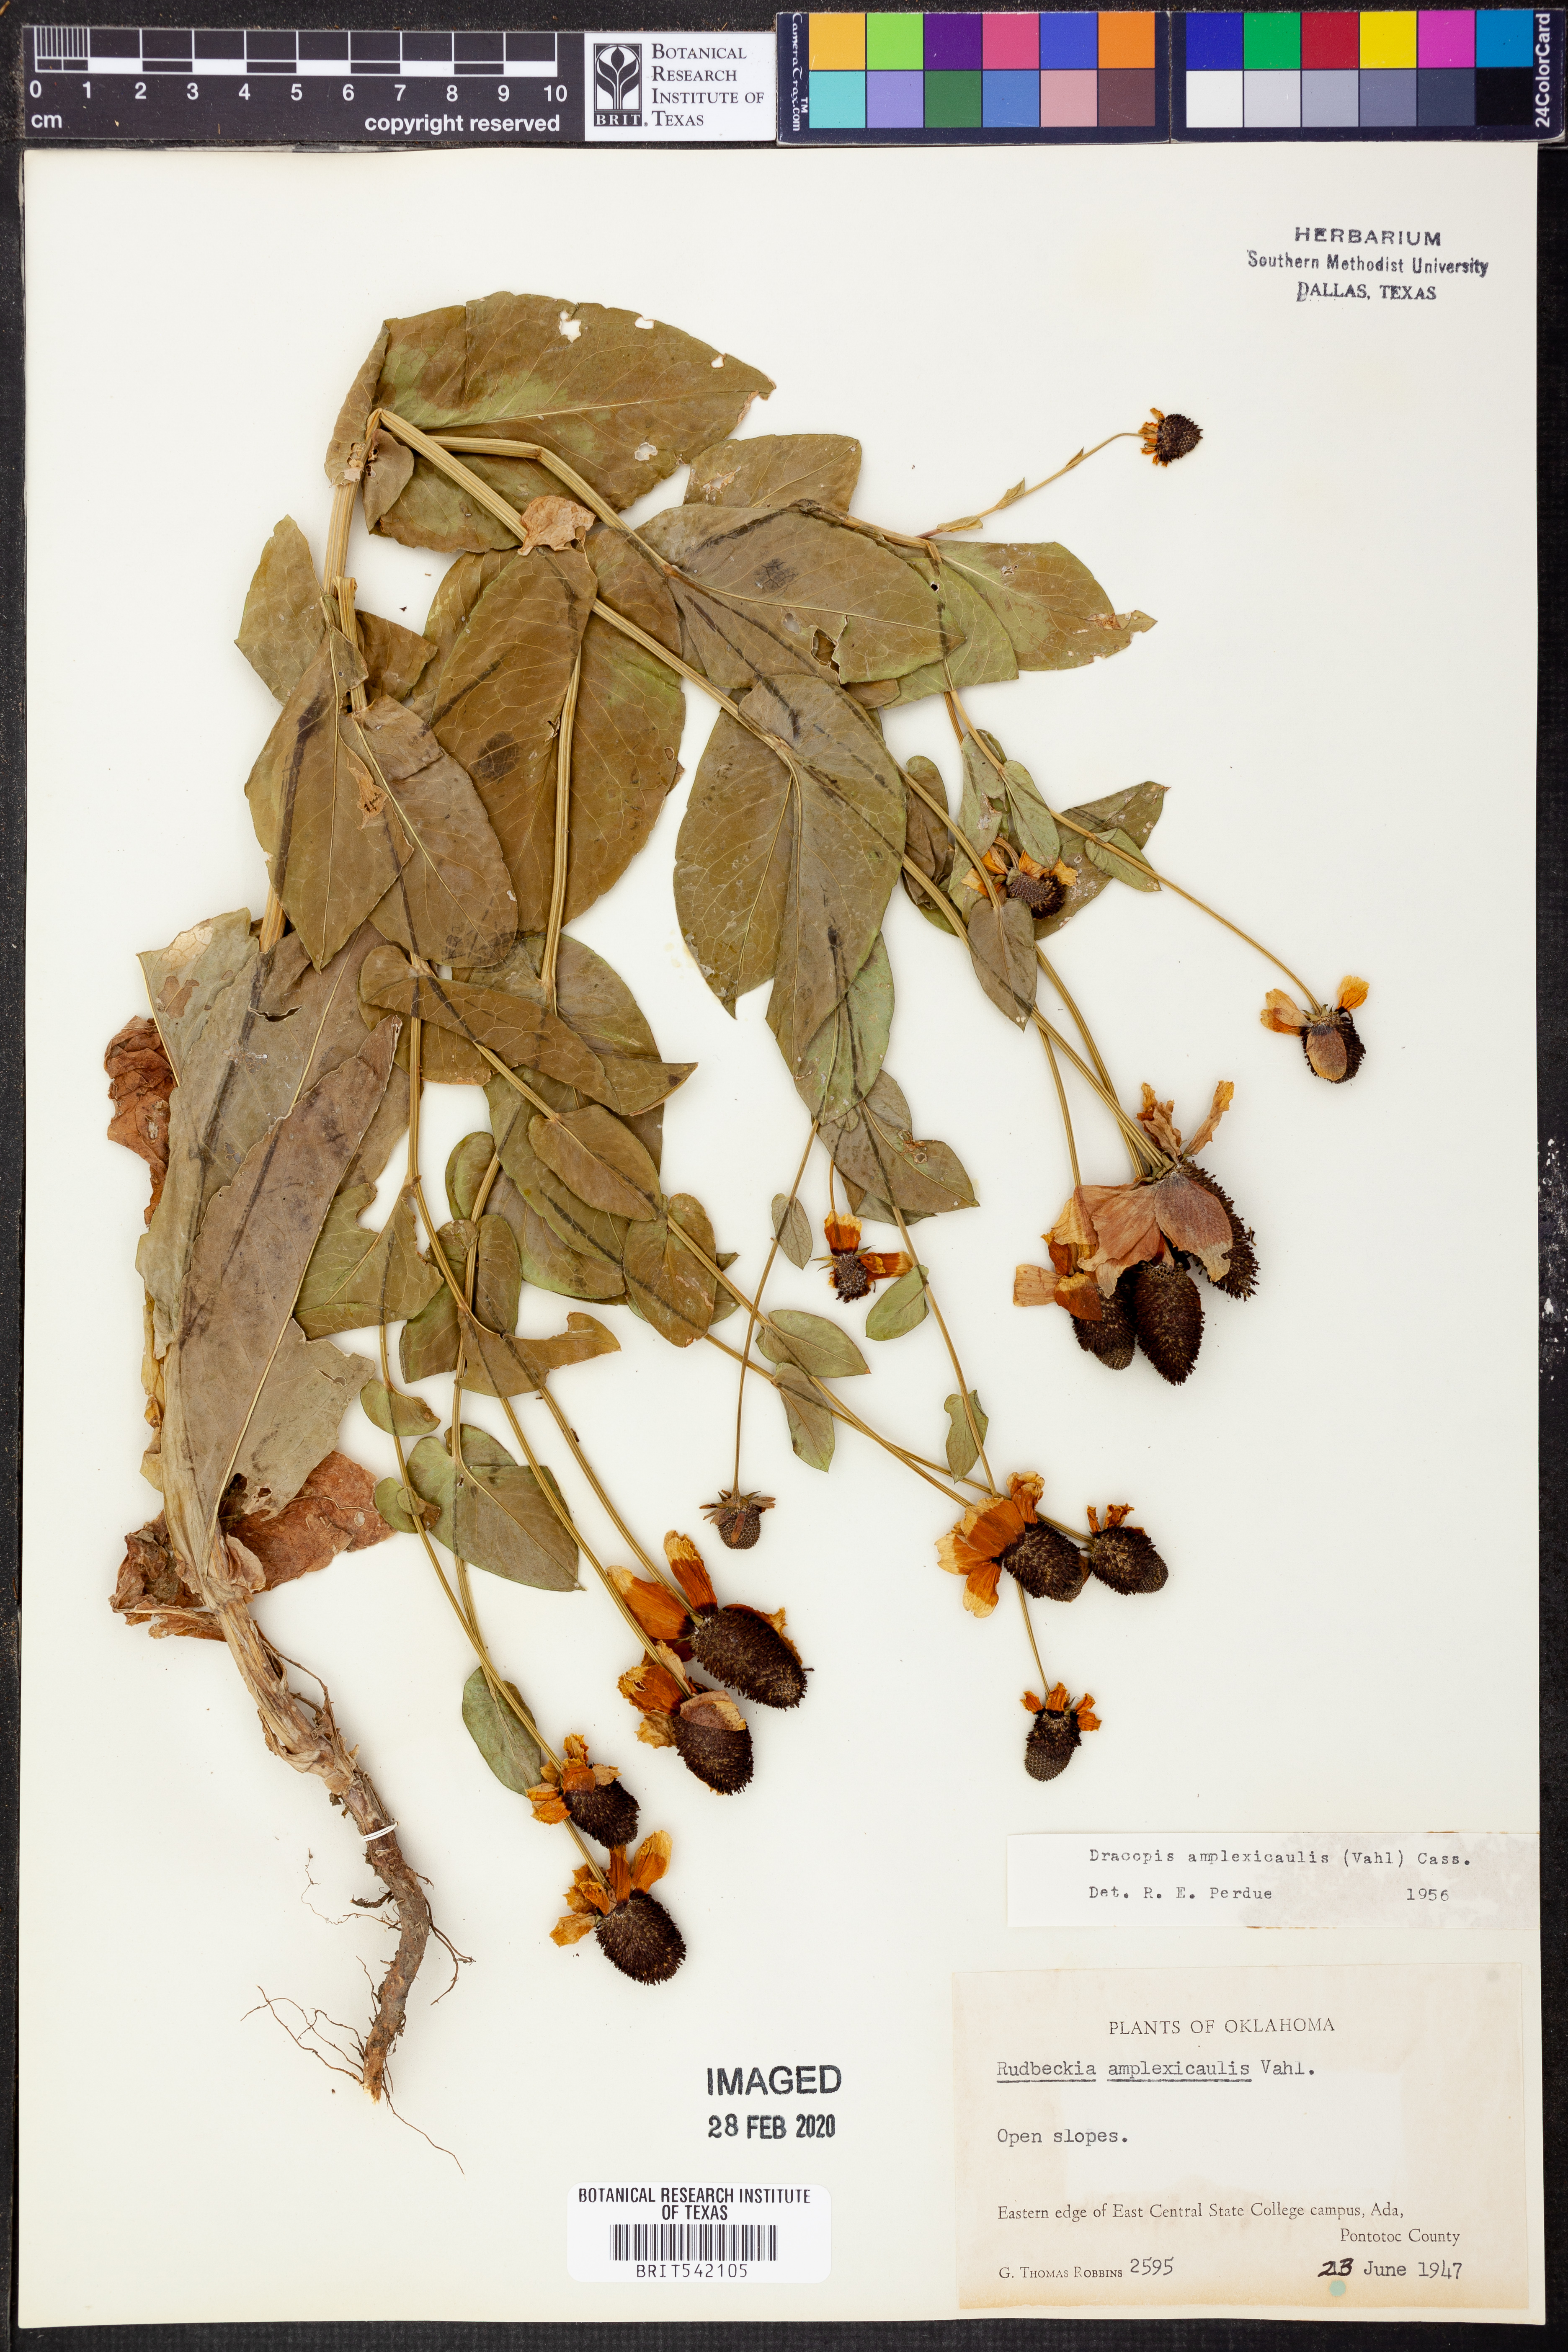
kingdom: Plantae
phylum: Tracheophyta
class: Magnoliopsida
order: Asterales
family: Asteraceae
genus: Rudbeckia
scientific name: Rudbeckia amplexicaulis
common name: Clasping-leaf coneflower
